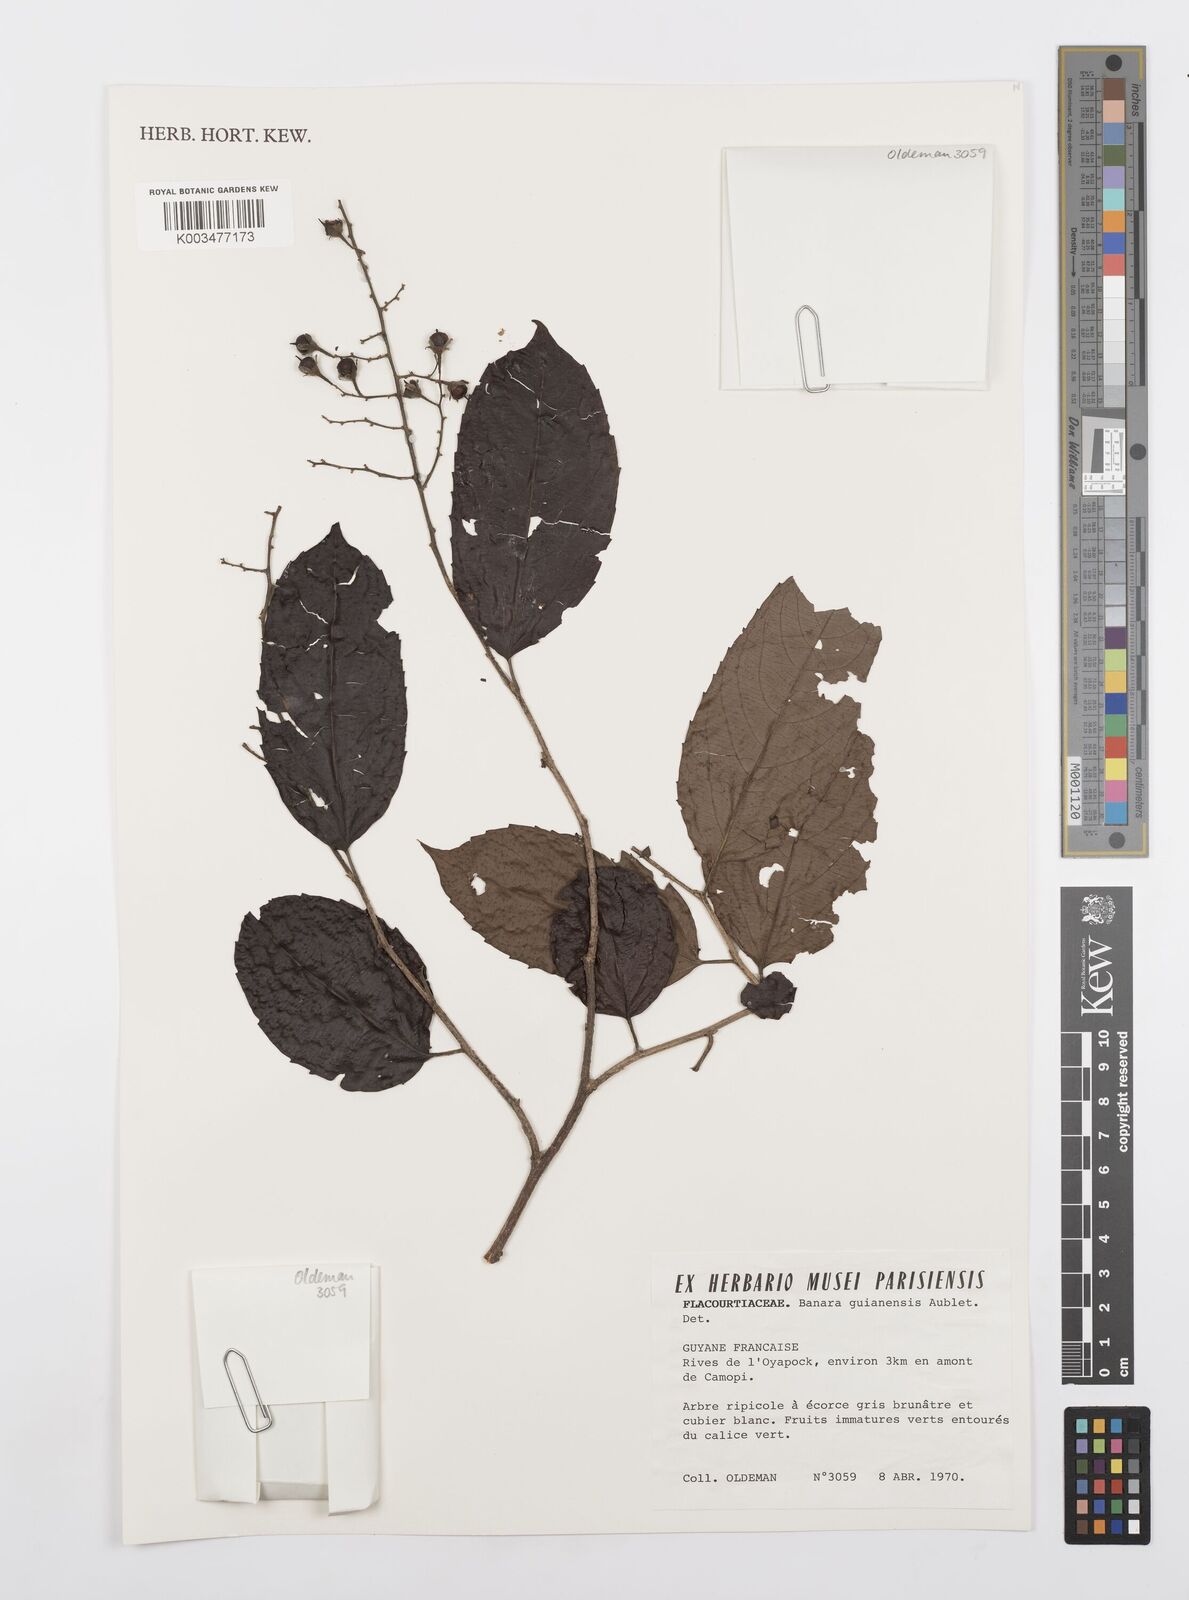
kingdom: Plantae
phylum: Tracheophyta
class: Magnoliopsida
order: Malpighiales
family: Salicaceae
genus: Banara
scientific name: Banara guianensis
